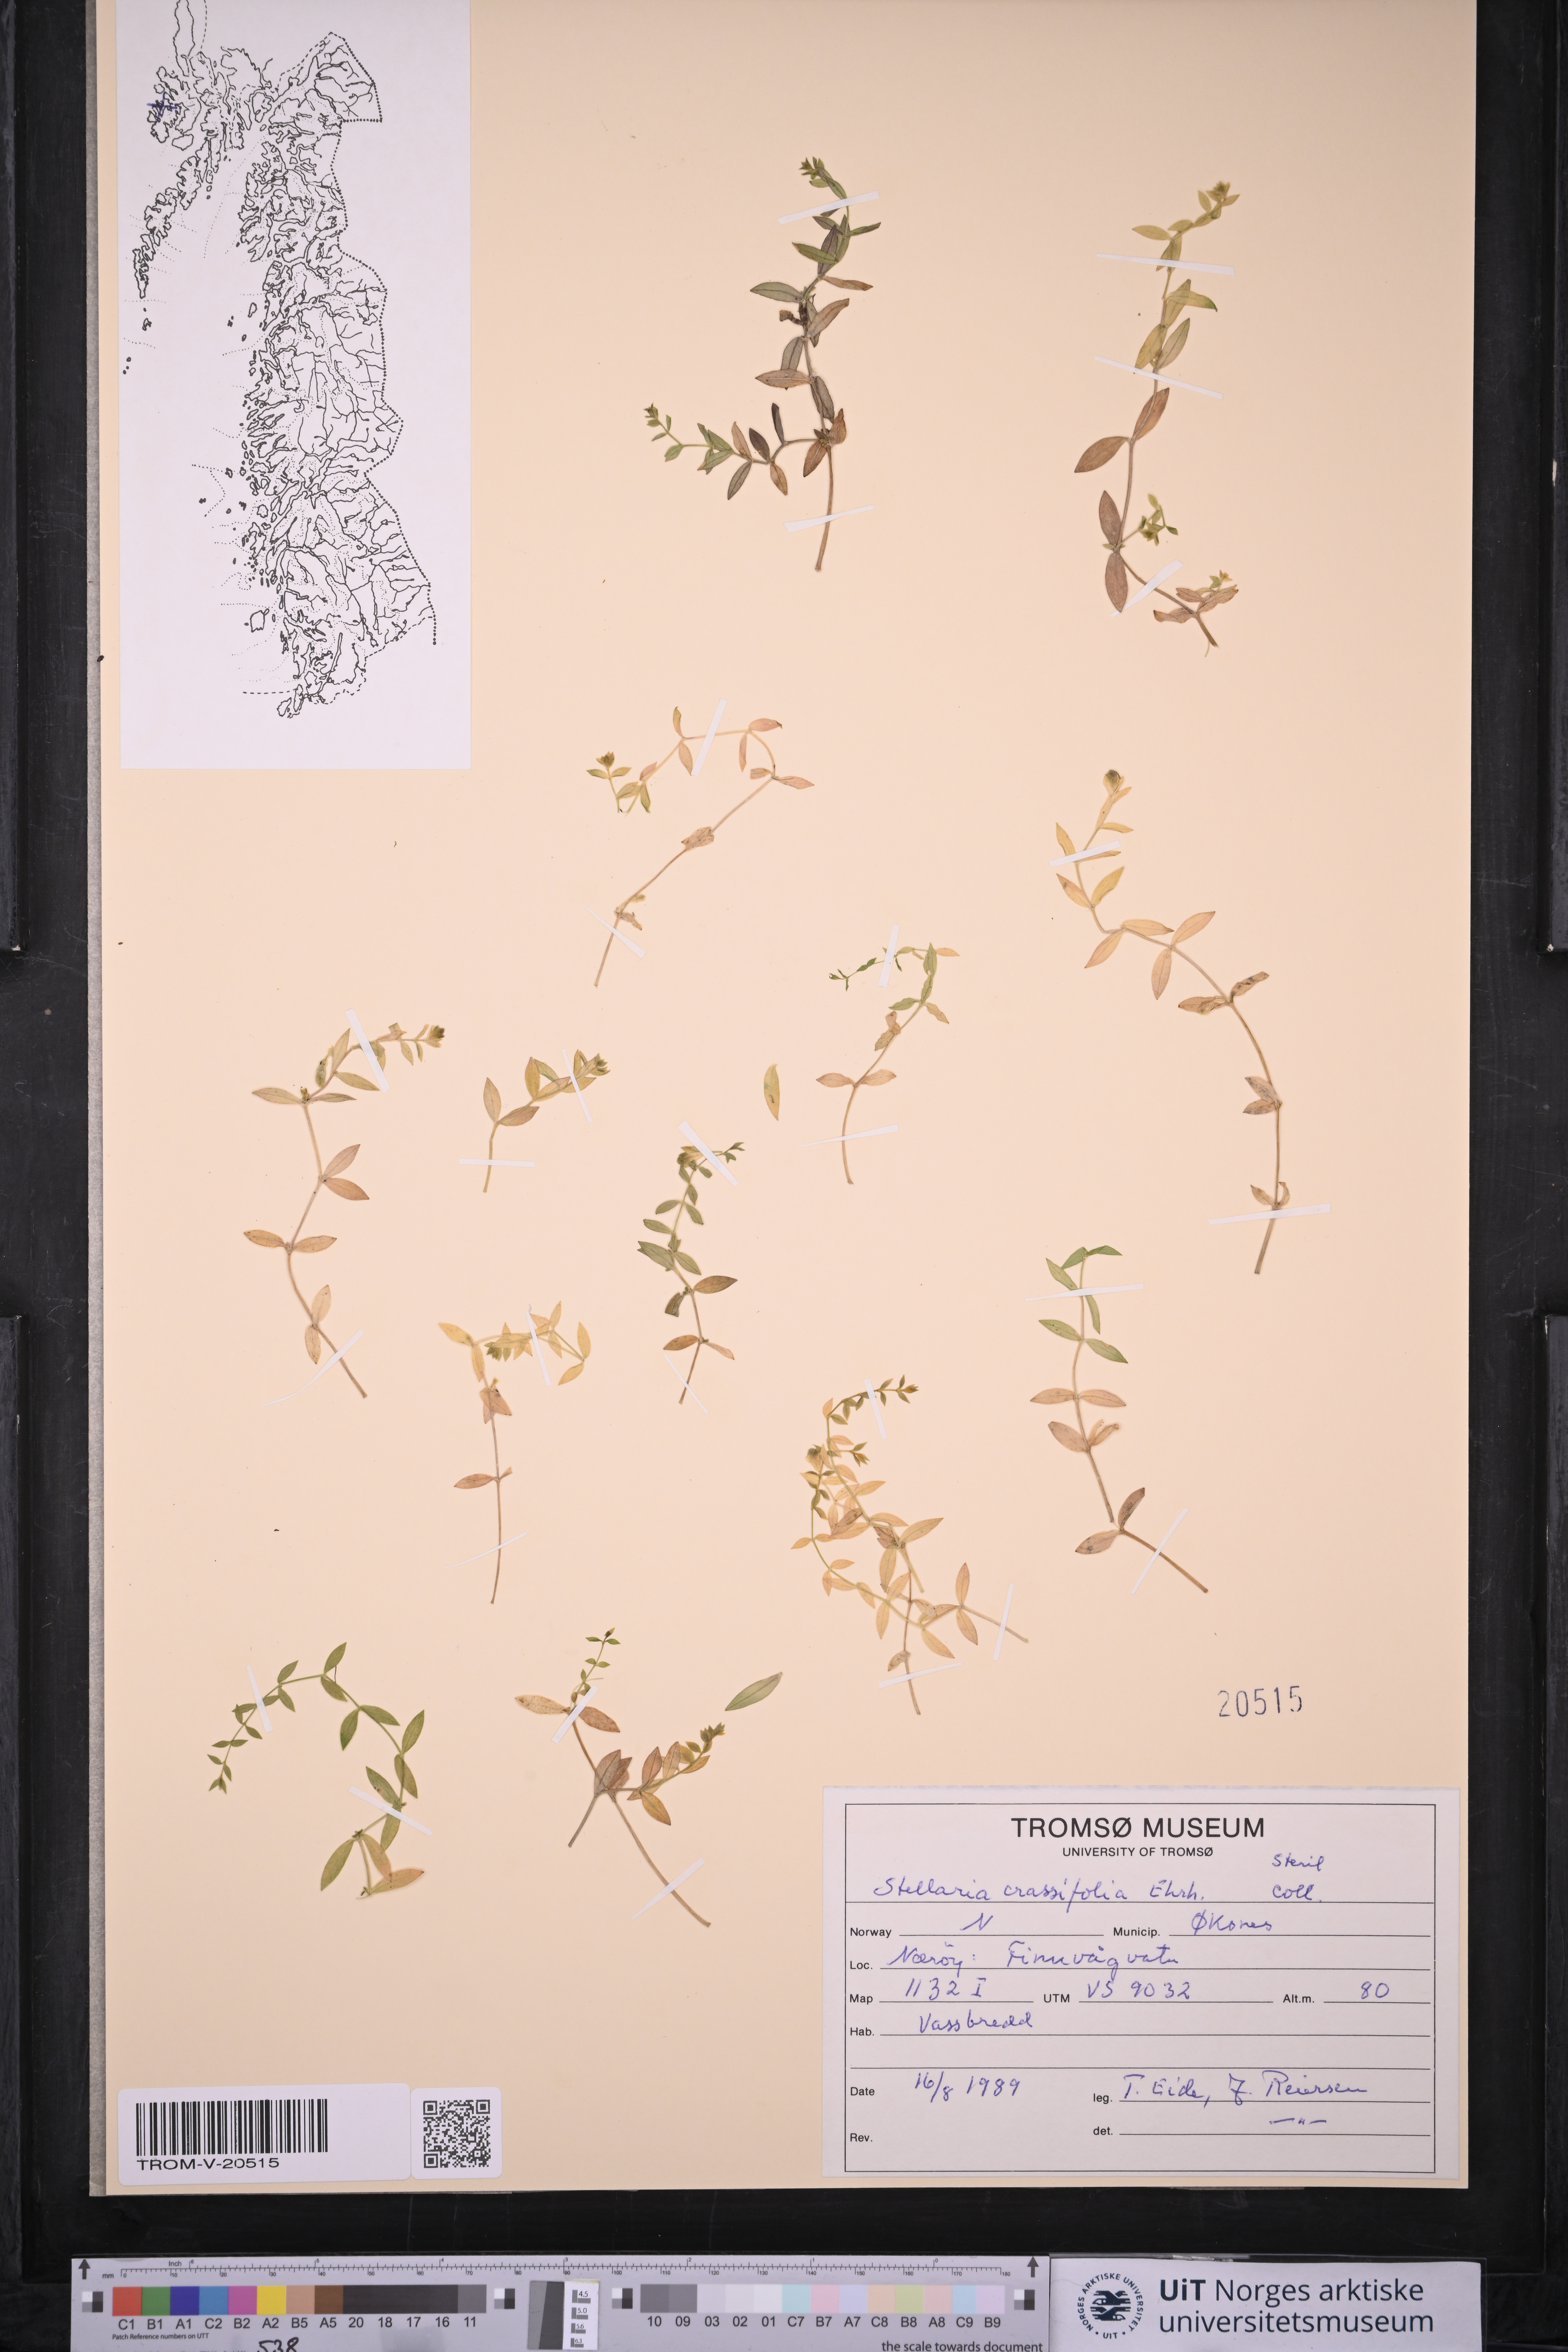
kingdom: Plantae
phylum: Tracheophyta
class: Magnoliopsida
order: Caryophyllales
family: Caryophyllaceae
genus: Stellaria
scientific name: Stellaria crassifolia
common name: Fleshy starwort
